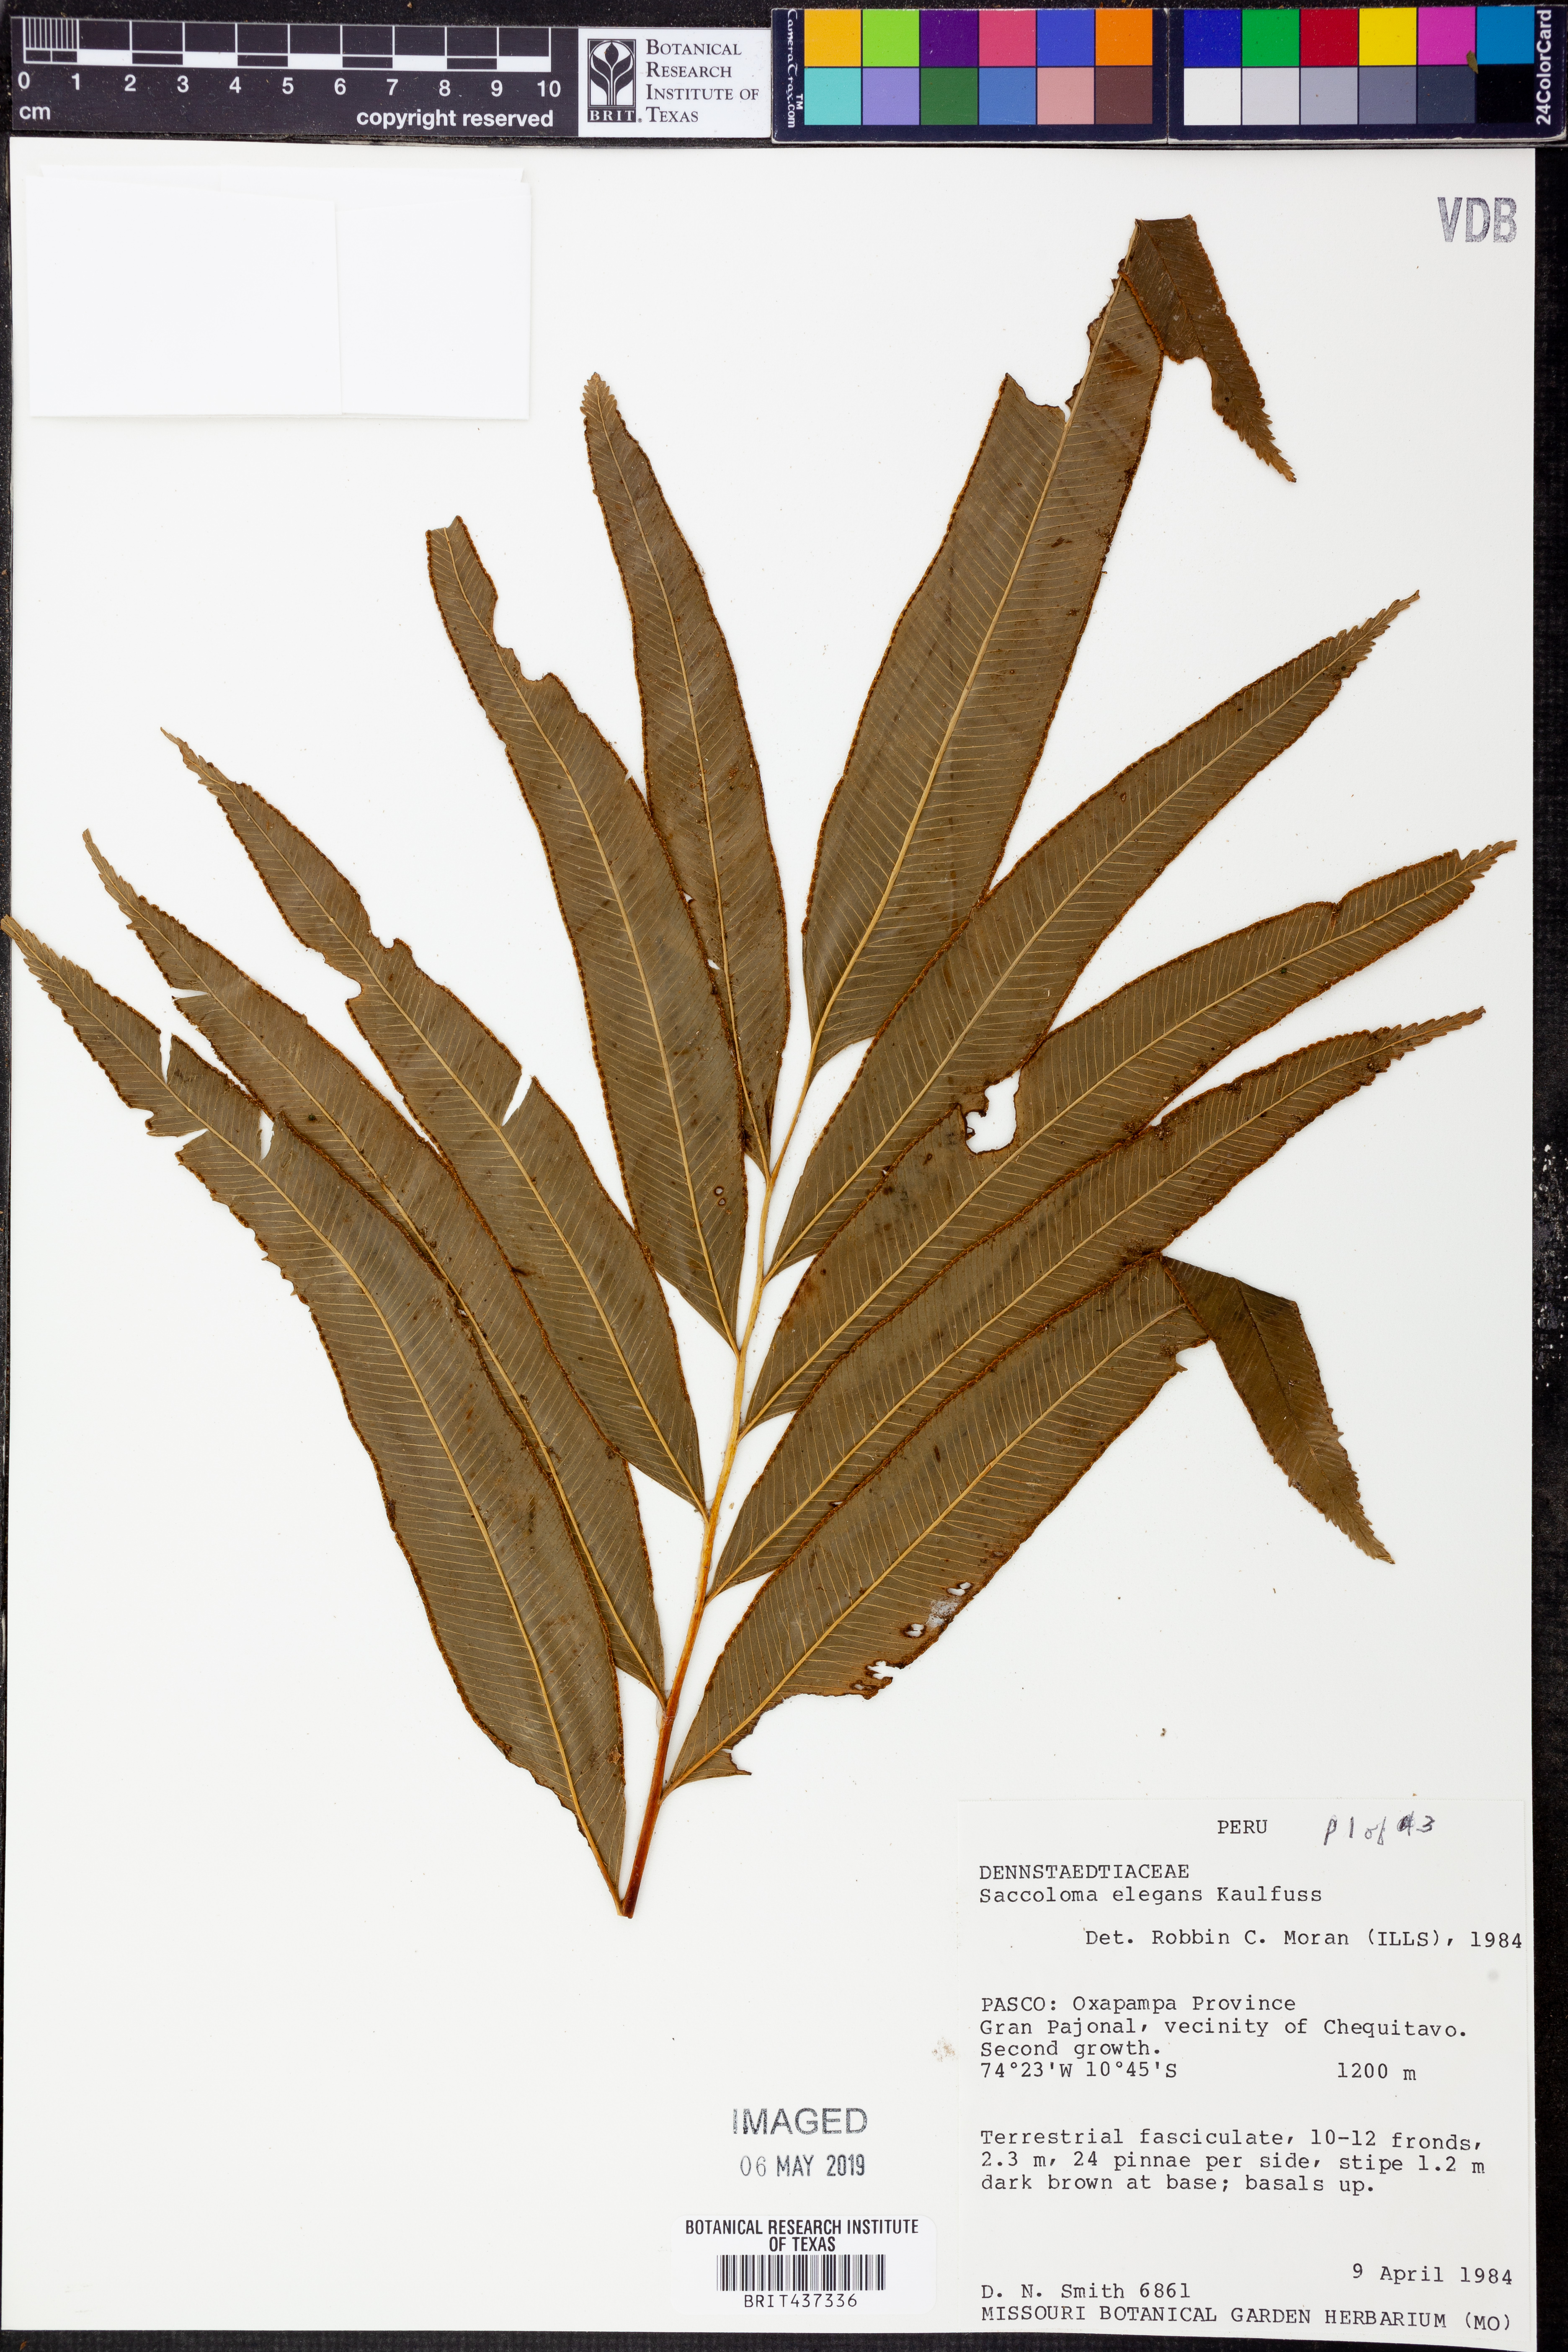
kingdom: Plantae
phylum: Tracheophyta
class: Polypodiopsida
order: Polypodiales
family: Saccolomataceae
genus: Saccoloma
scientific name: Saccoloma elegans
